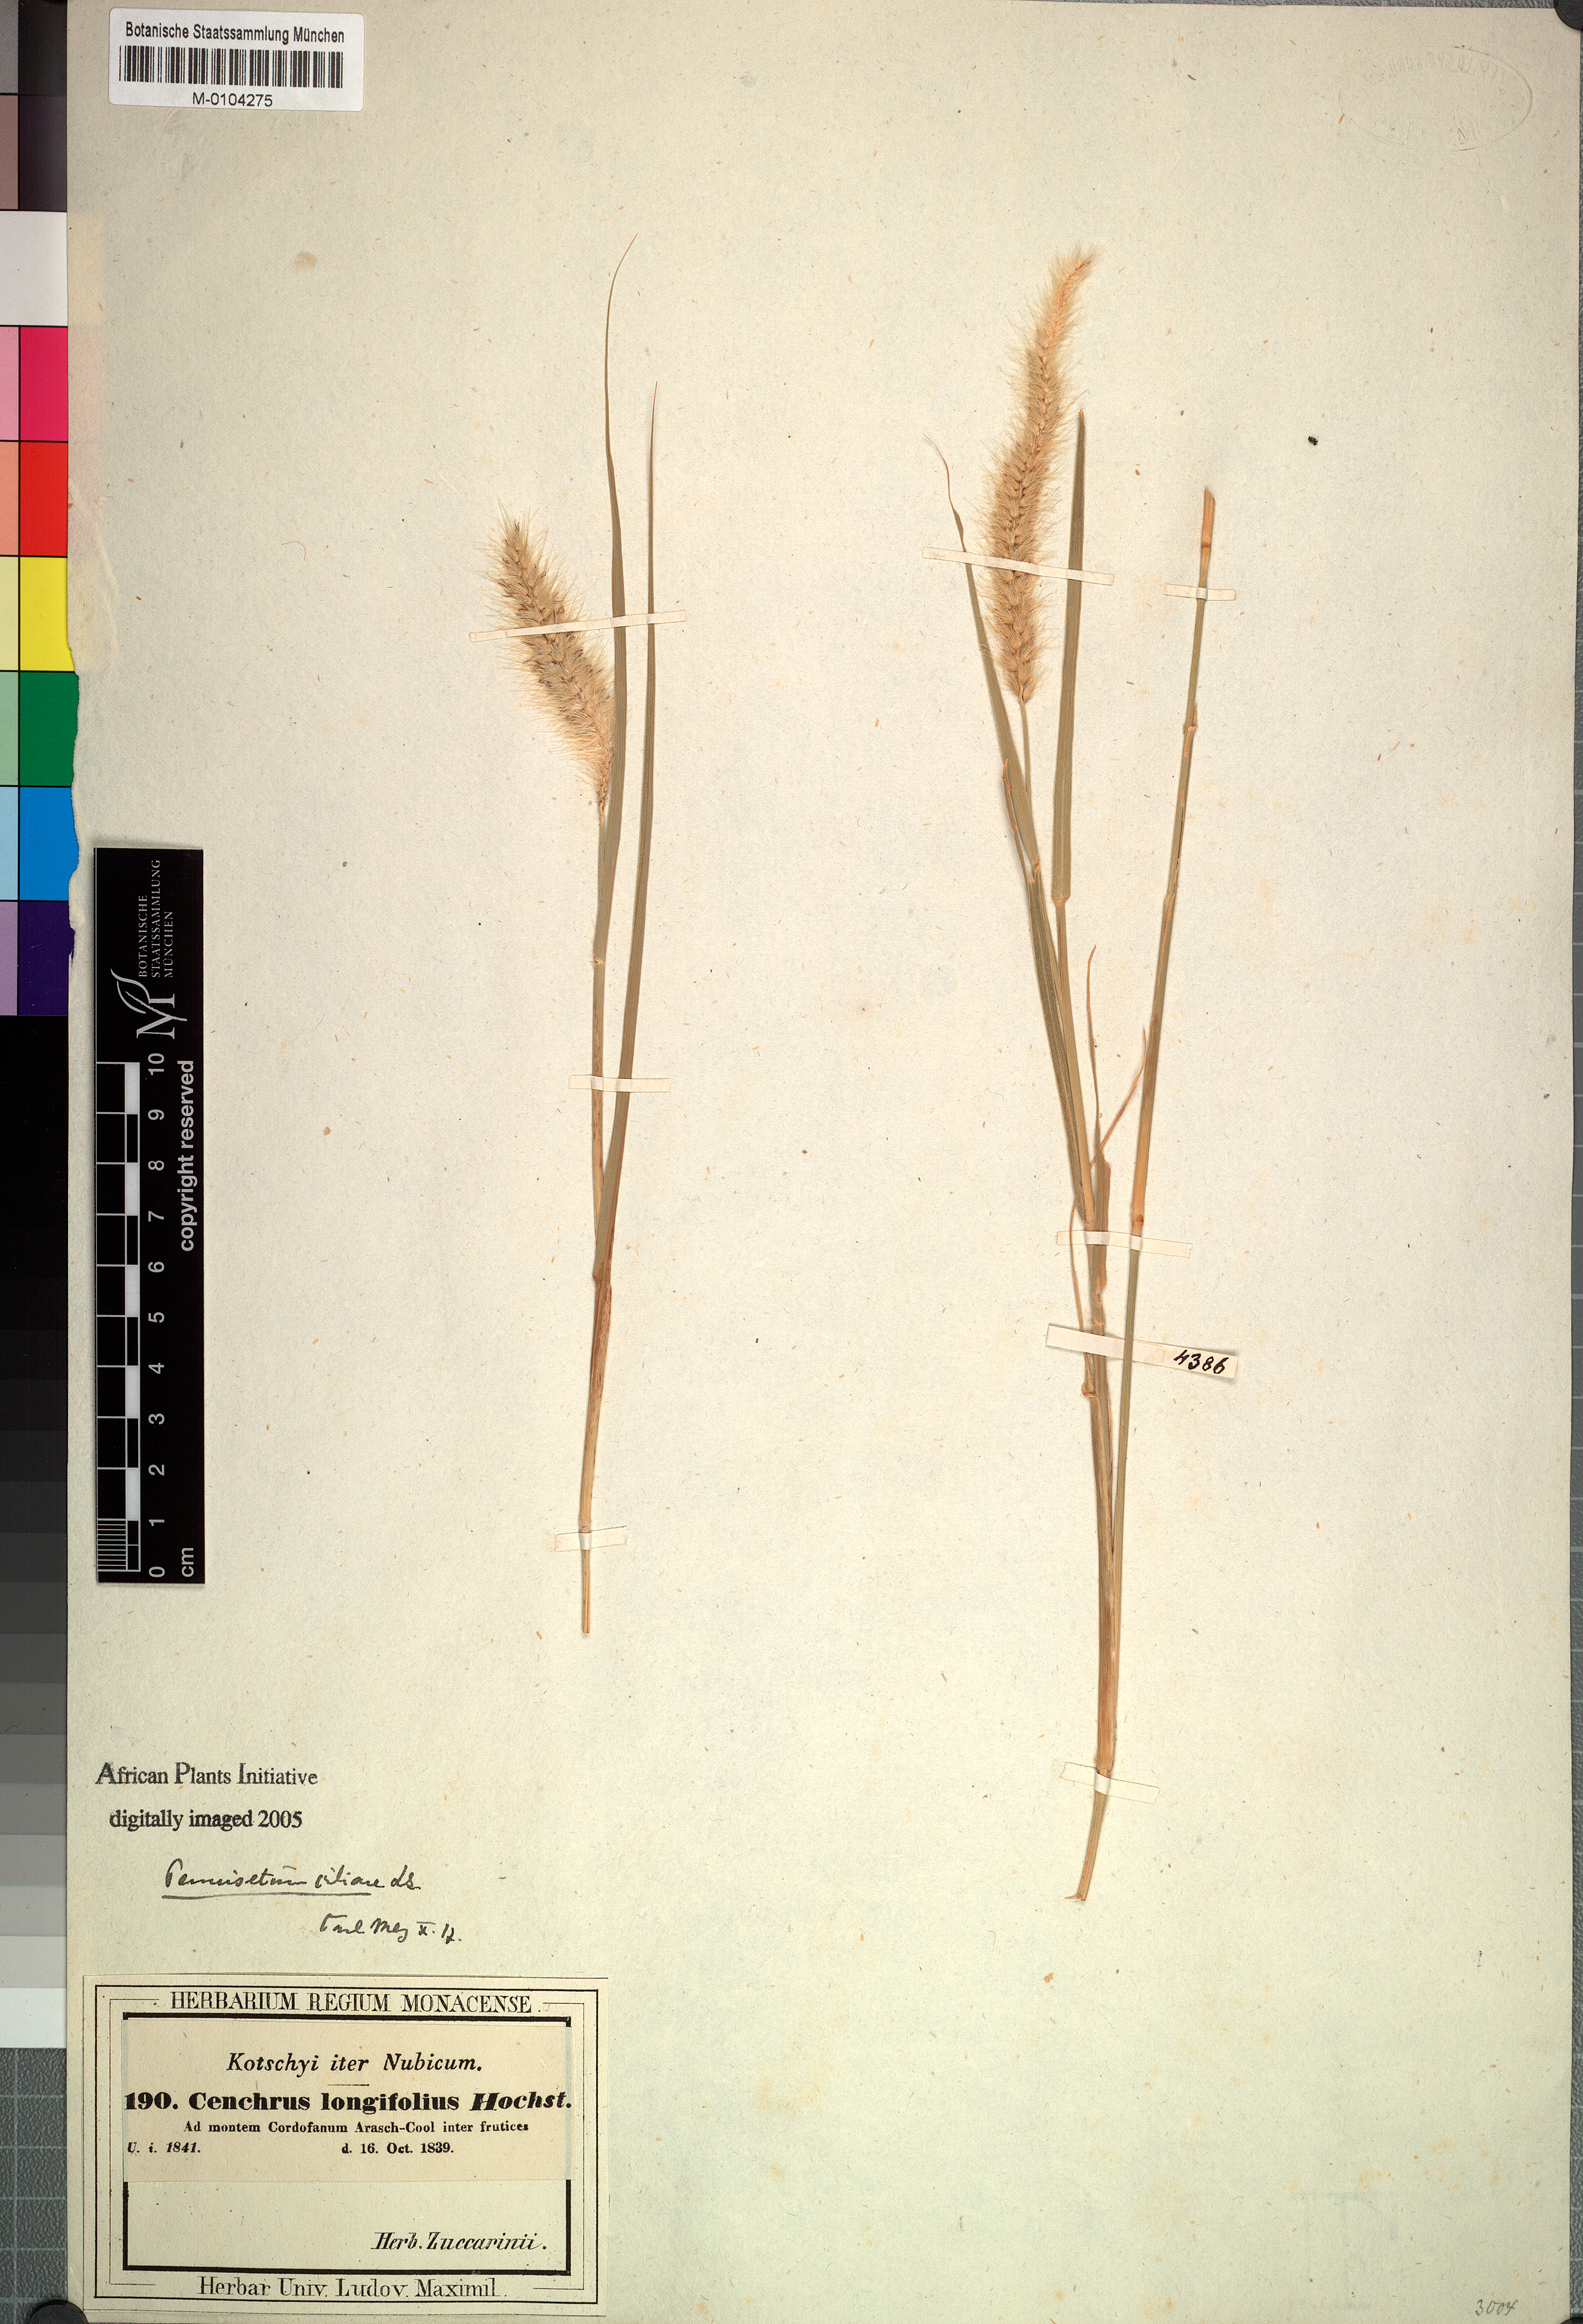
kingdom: Plantae
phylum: Tracheophyta
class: Liliopsida
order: Poales
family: Poaceae
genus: Cenchrus
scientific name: Cenchrus ciliaris
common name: Buffelgrass
